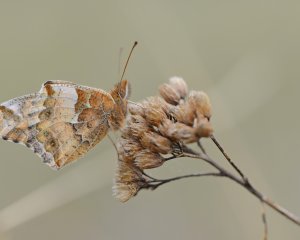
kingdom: Animalia
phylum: Arthropoda
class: Insecta
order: Lepidoptera
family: Nymphalidae
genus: Euptoieta
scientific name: Euptoieta claudia
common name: Variegated Fritillary
